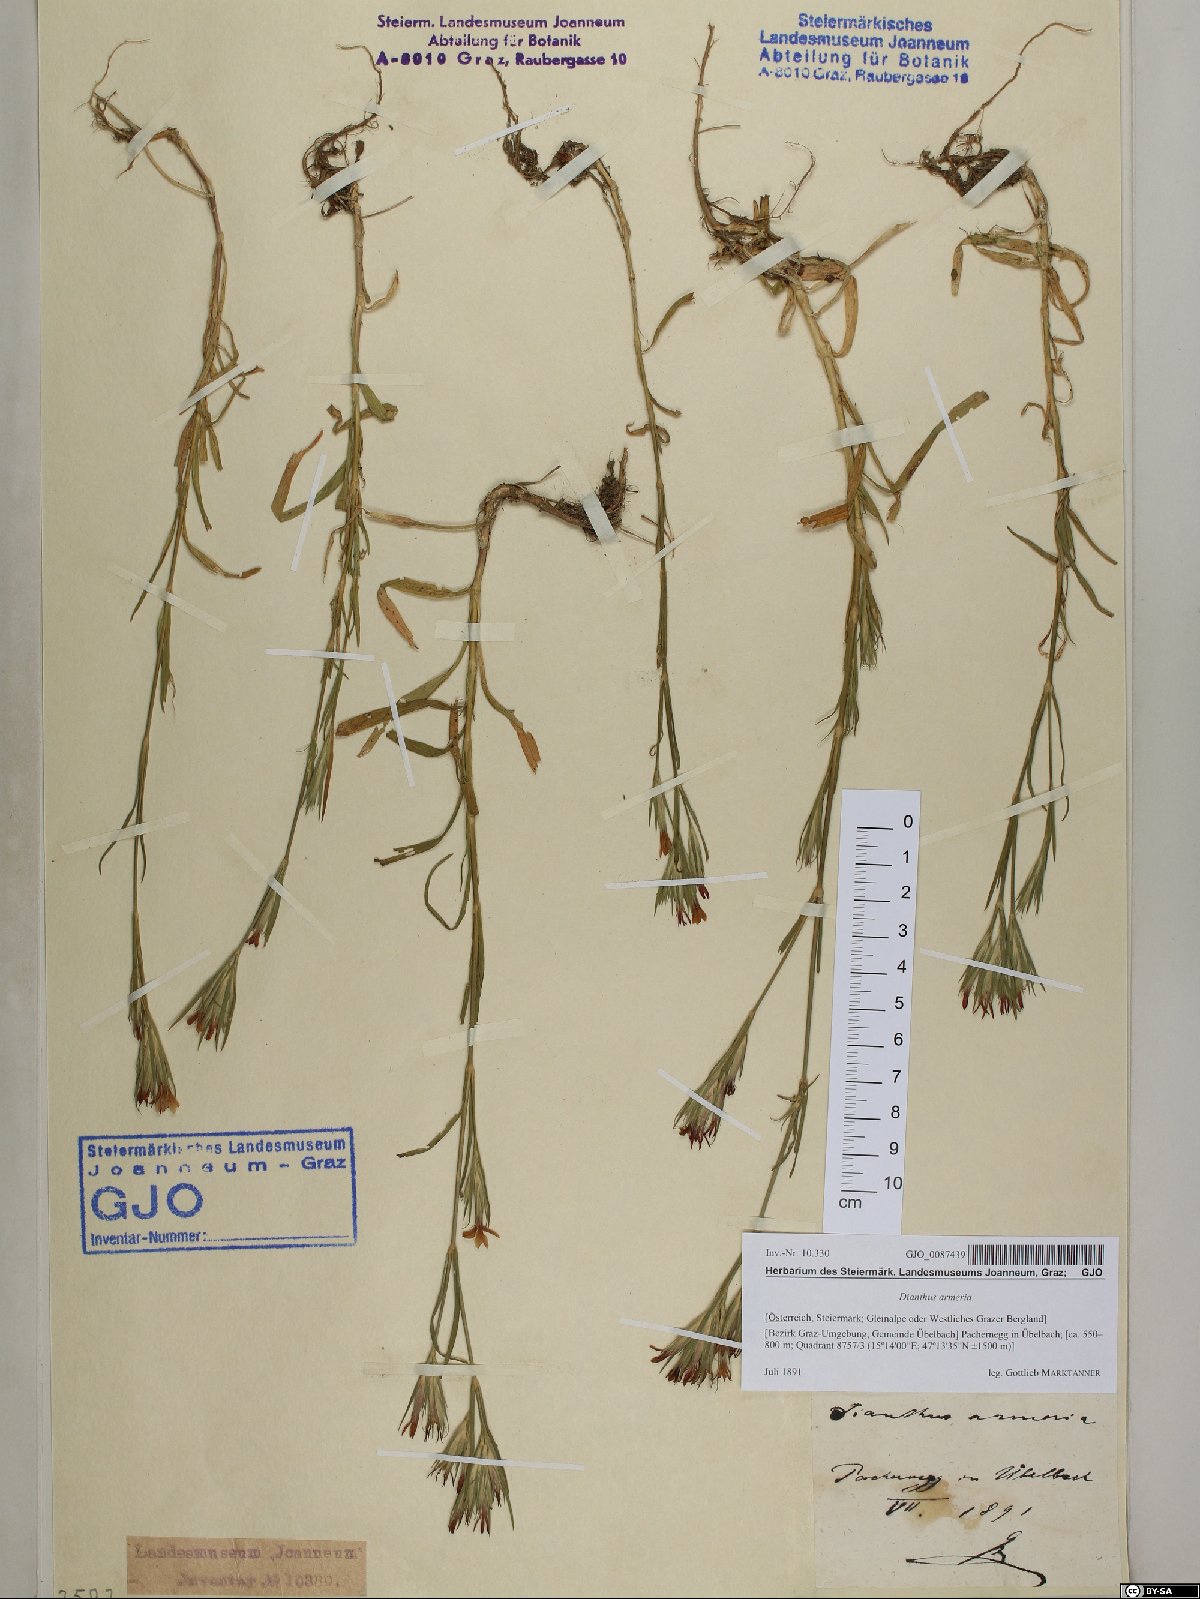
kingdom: Plantae
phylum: Tracheophyta
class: Magnoliopsida
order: Caryophyllales
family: Caryophyllaceae
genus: Dianthus
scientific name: Dianthus armeria
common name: Deptford pink
